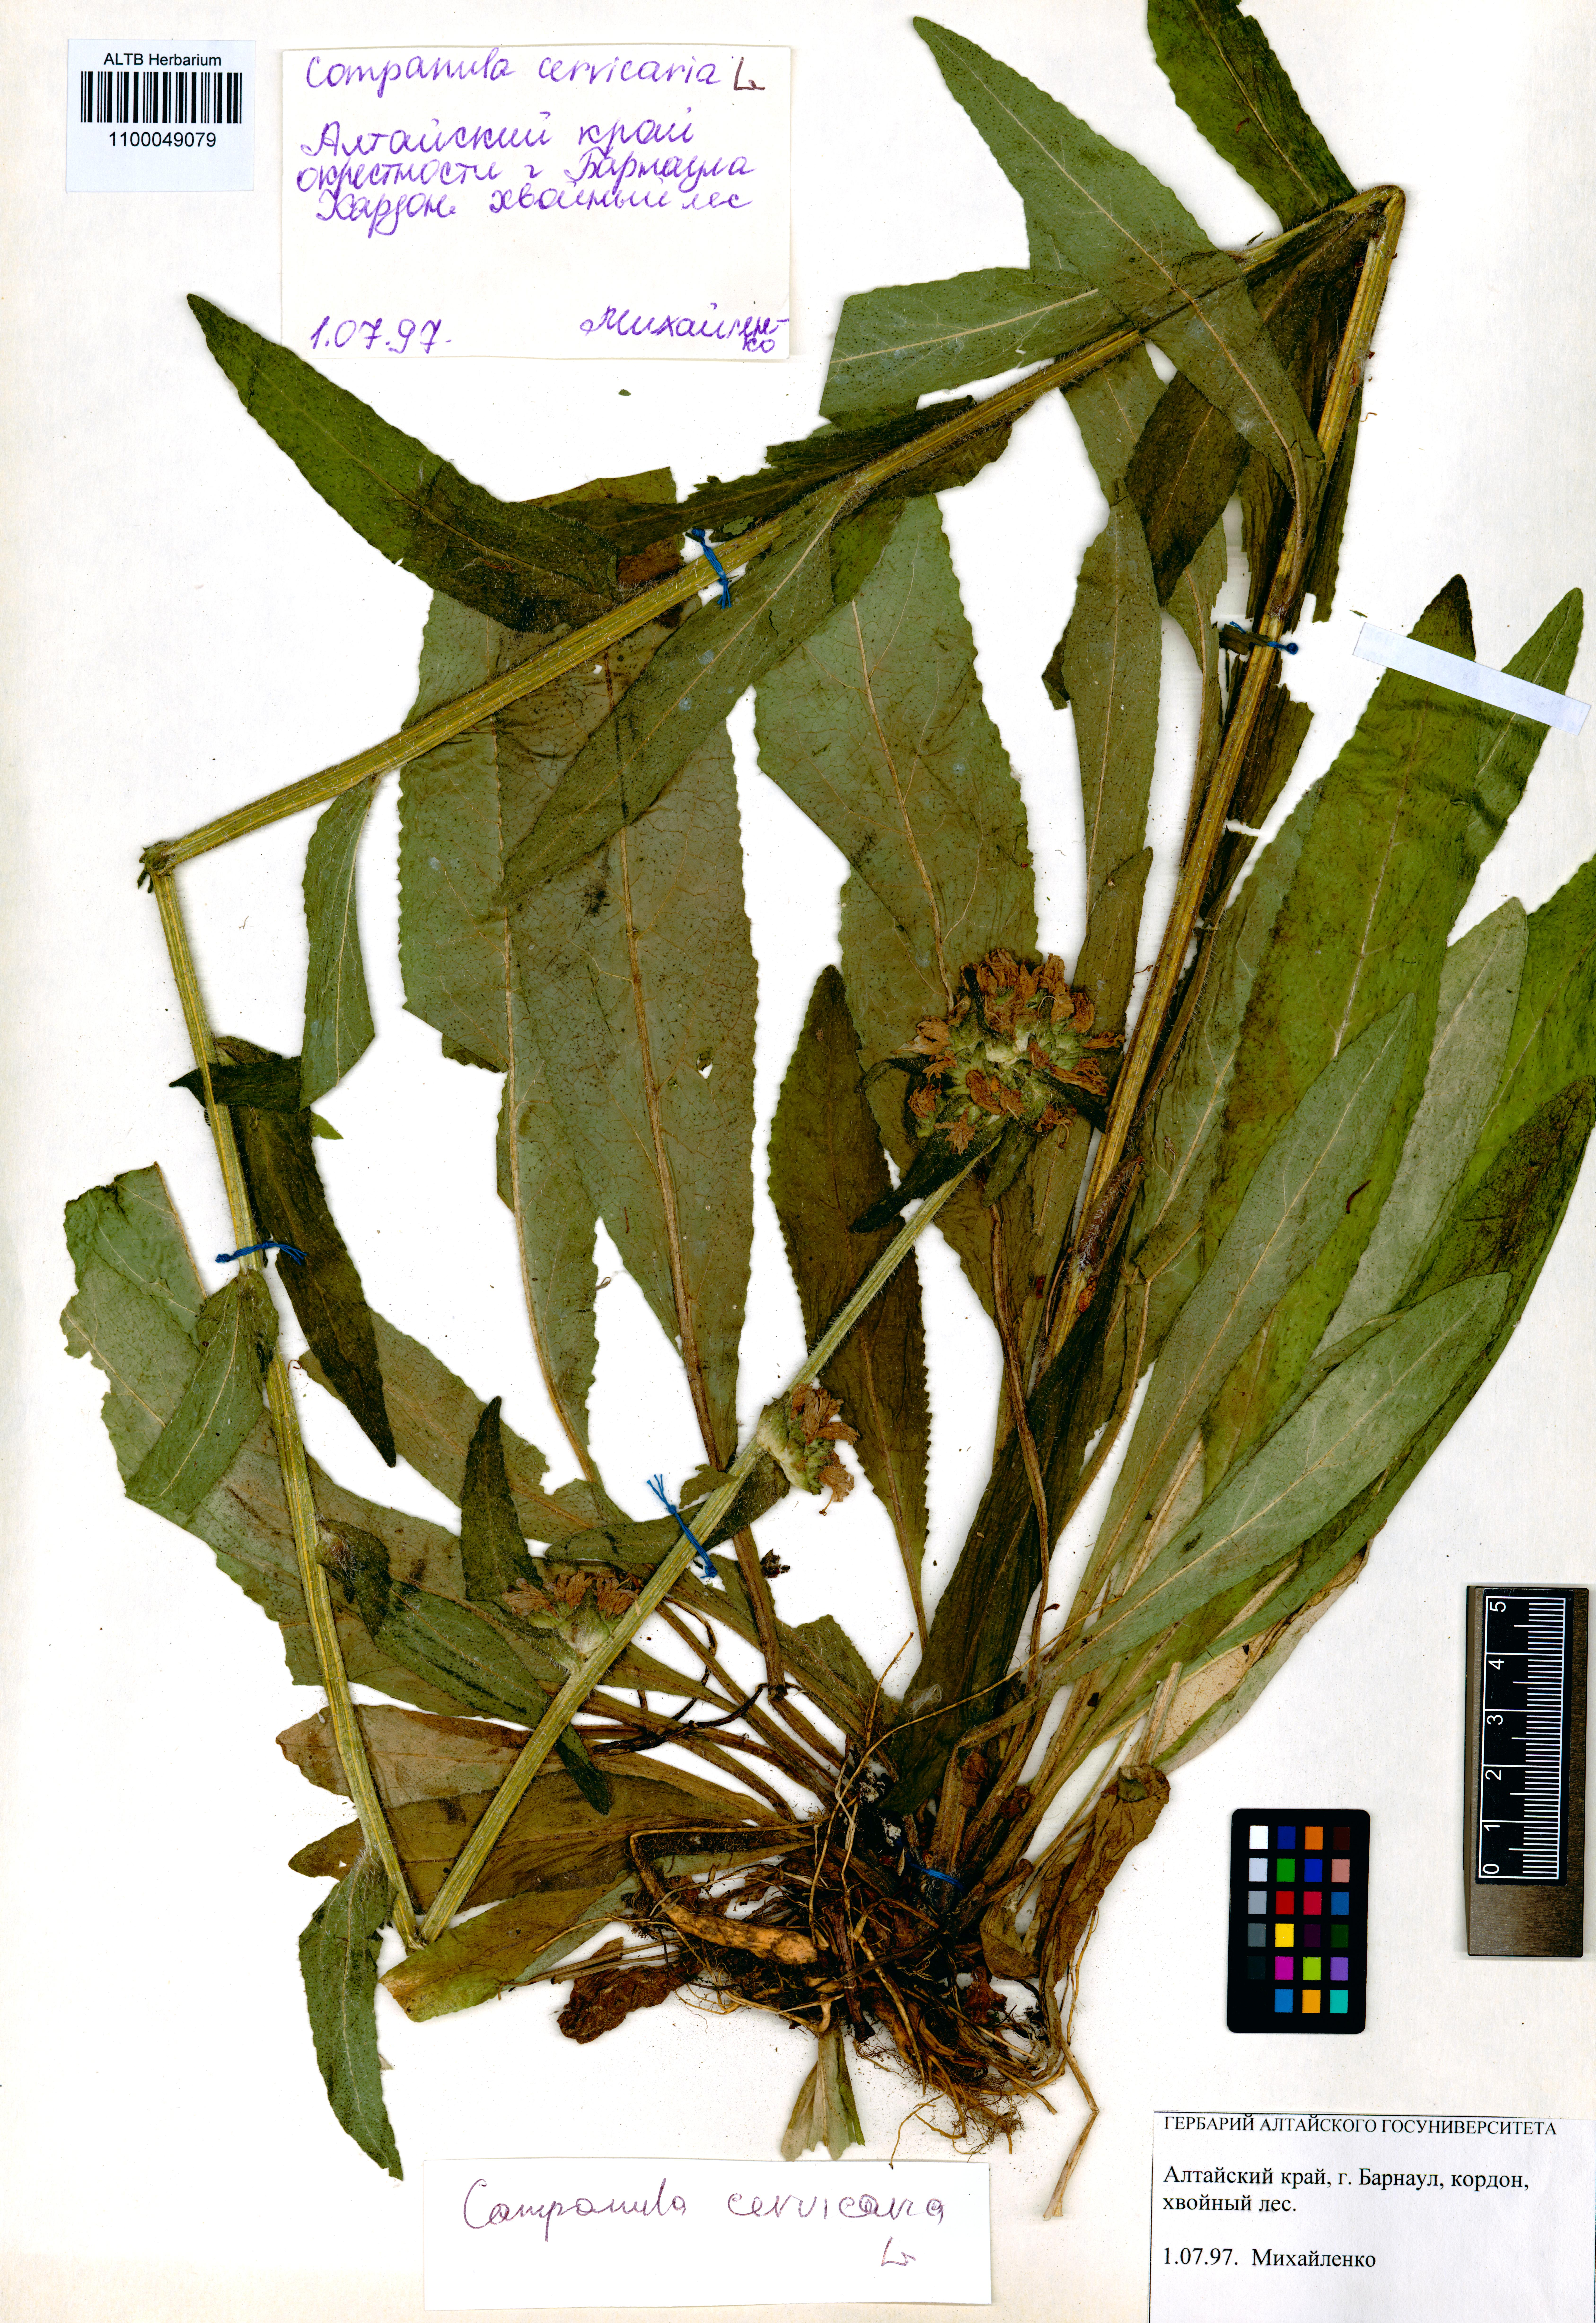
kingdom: Plantae
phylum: Tracheophyta
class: Magnoliopsida
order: Asterales
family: Campanulaceae
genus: Campanula
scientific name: Campanula cervicaria
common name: Bristly bellflower
